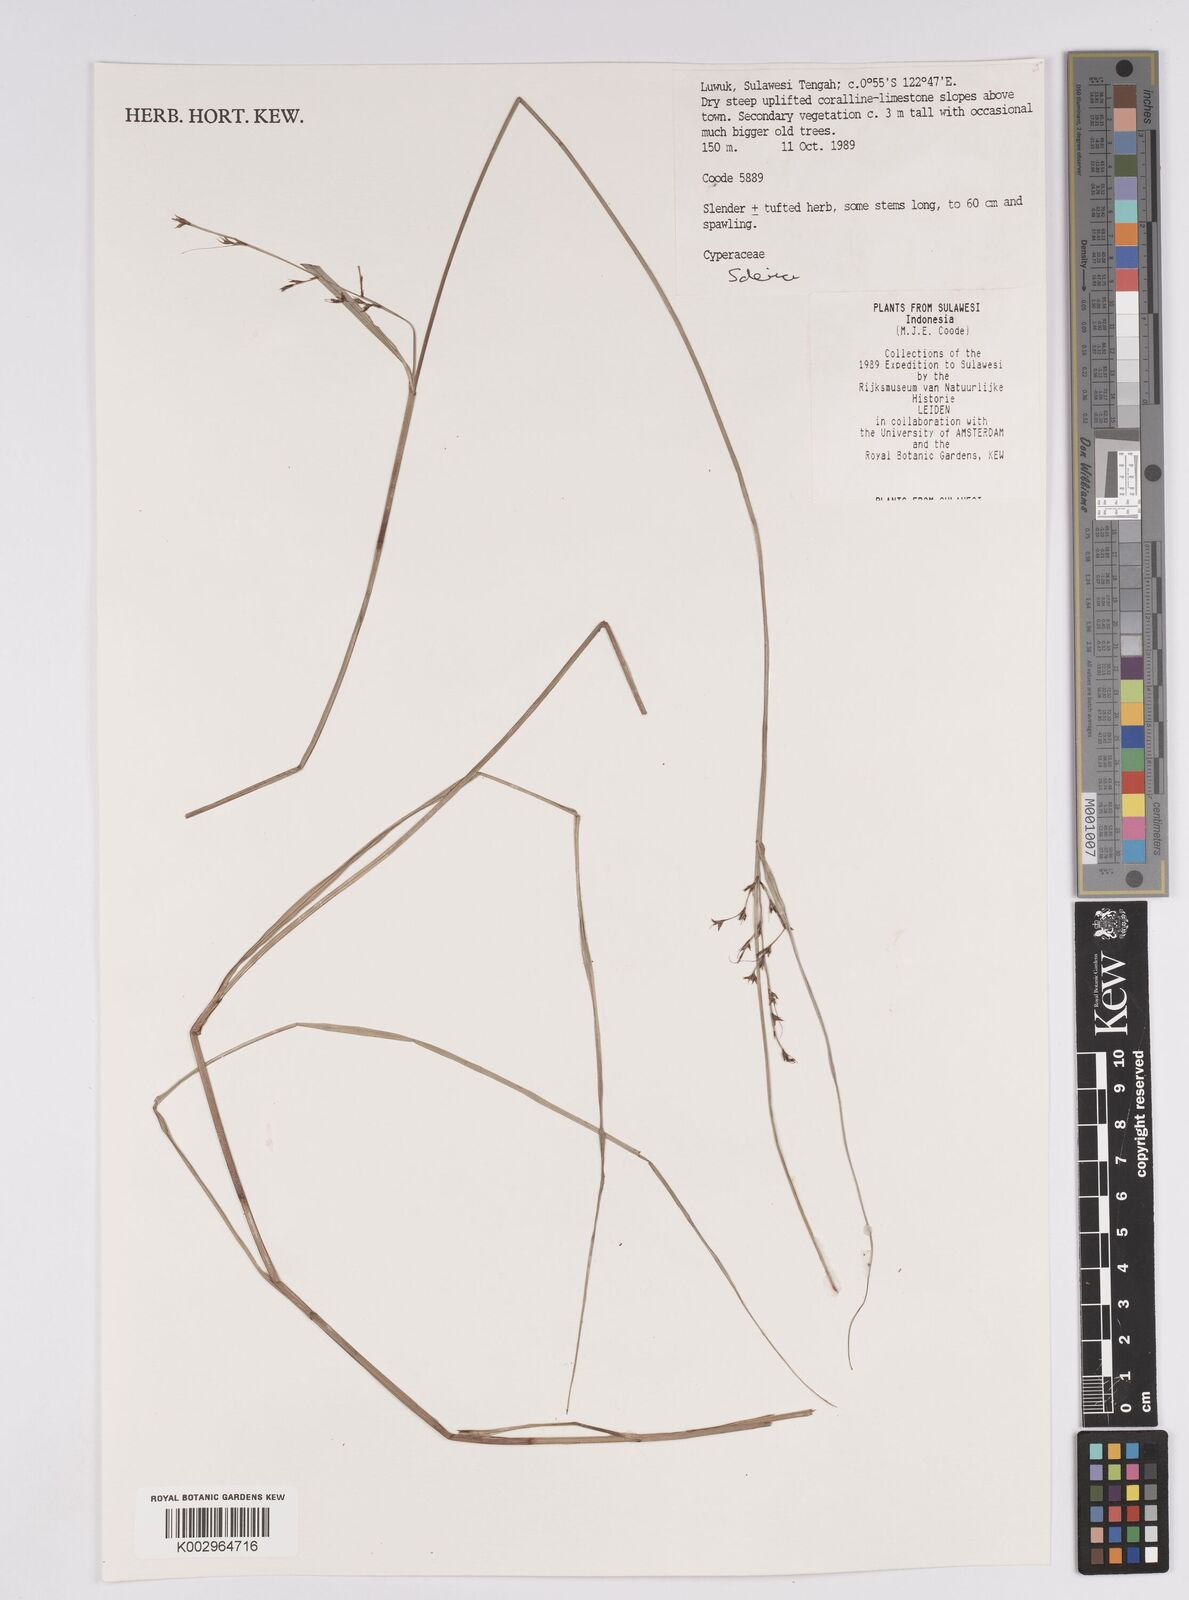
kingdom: Plantae
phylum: Tracheophyta
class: Liliopsida
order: Poales
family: Cyperaceae
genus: Scleria
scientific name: Scleria
